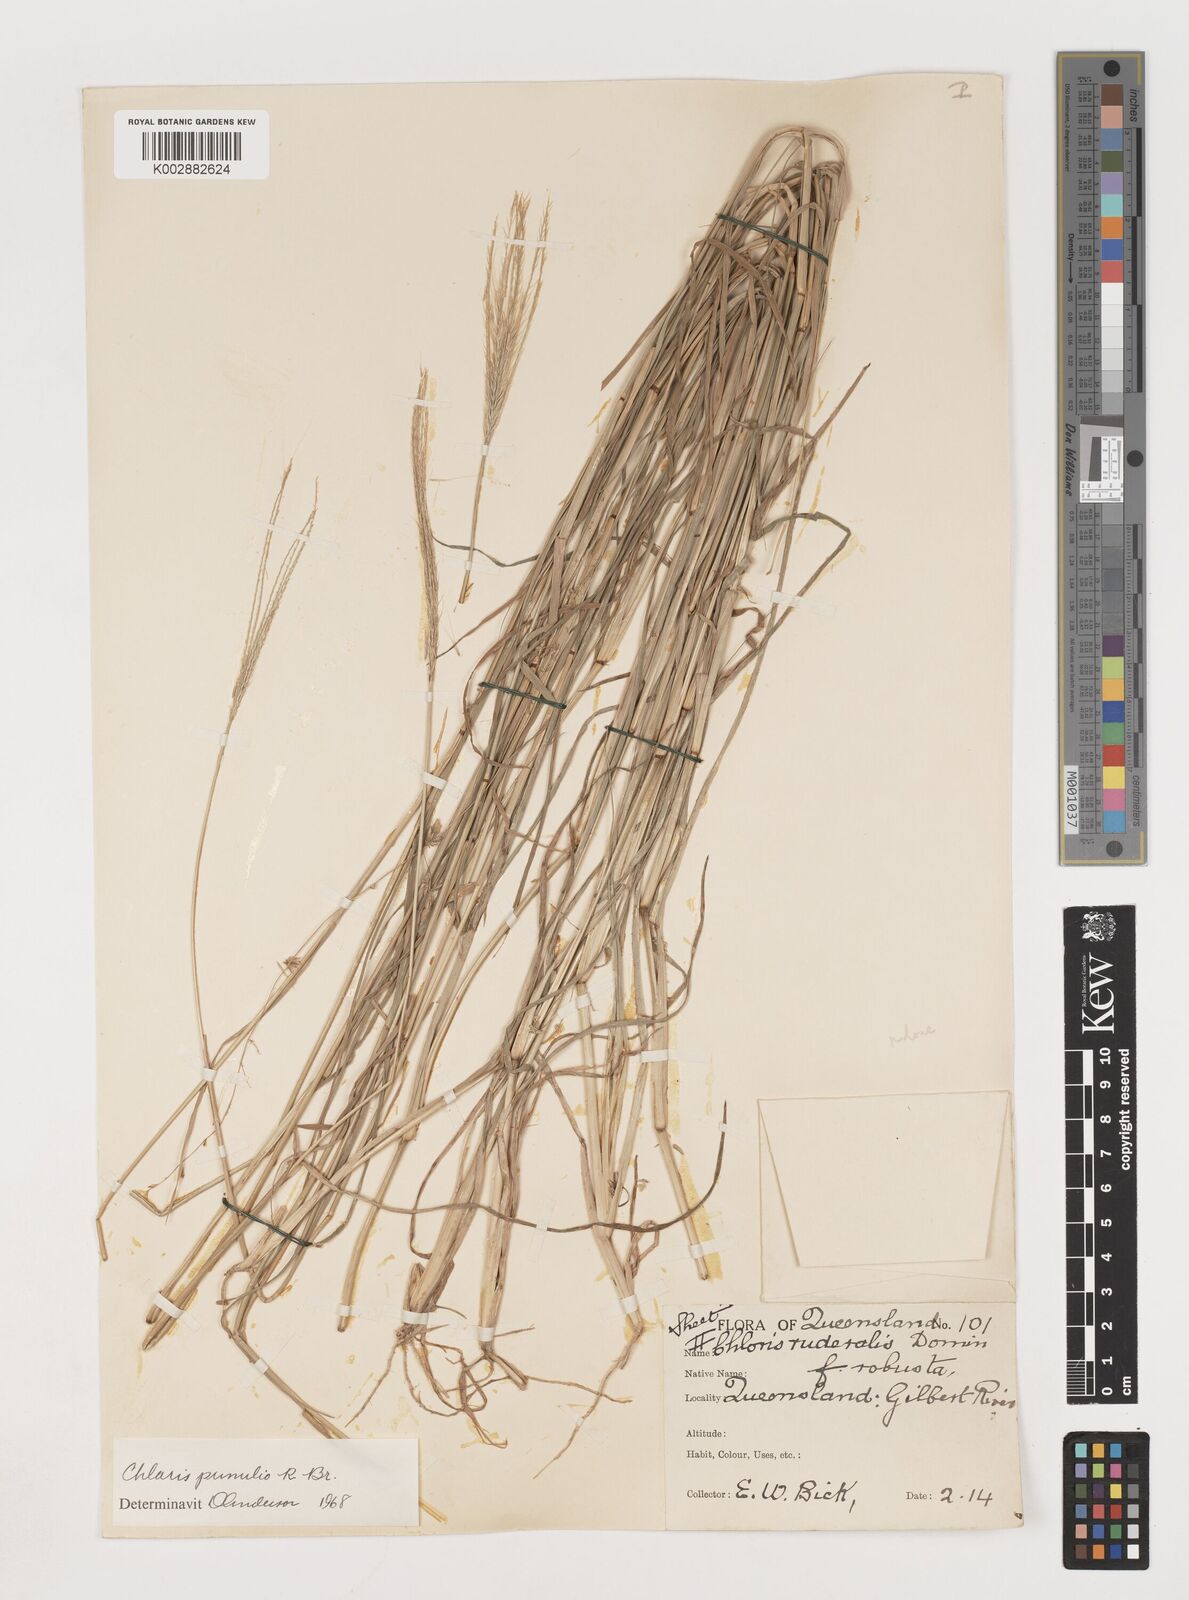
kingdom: Plantae
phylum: Tracheophyta
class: Liliopsida
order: Poales
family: Poaceae
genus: Chloris
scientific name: Chloris pumilio
